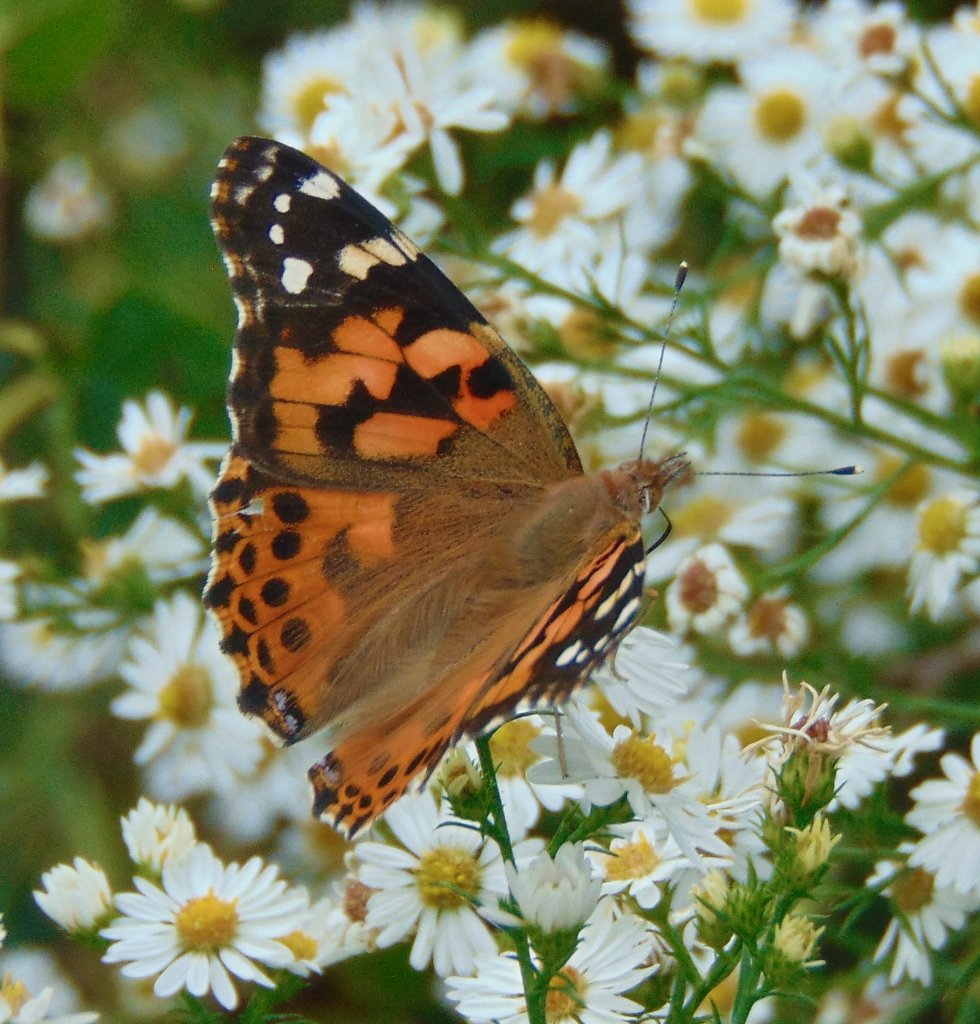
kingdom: Animalia
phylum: Arthropoda
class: Insecta
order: Lepidoptera
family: Nymphalidae
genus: Vanessa
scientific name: Vanessa cardui
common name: Painted Lady
